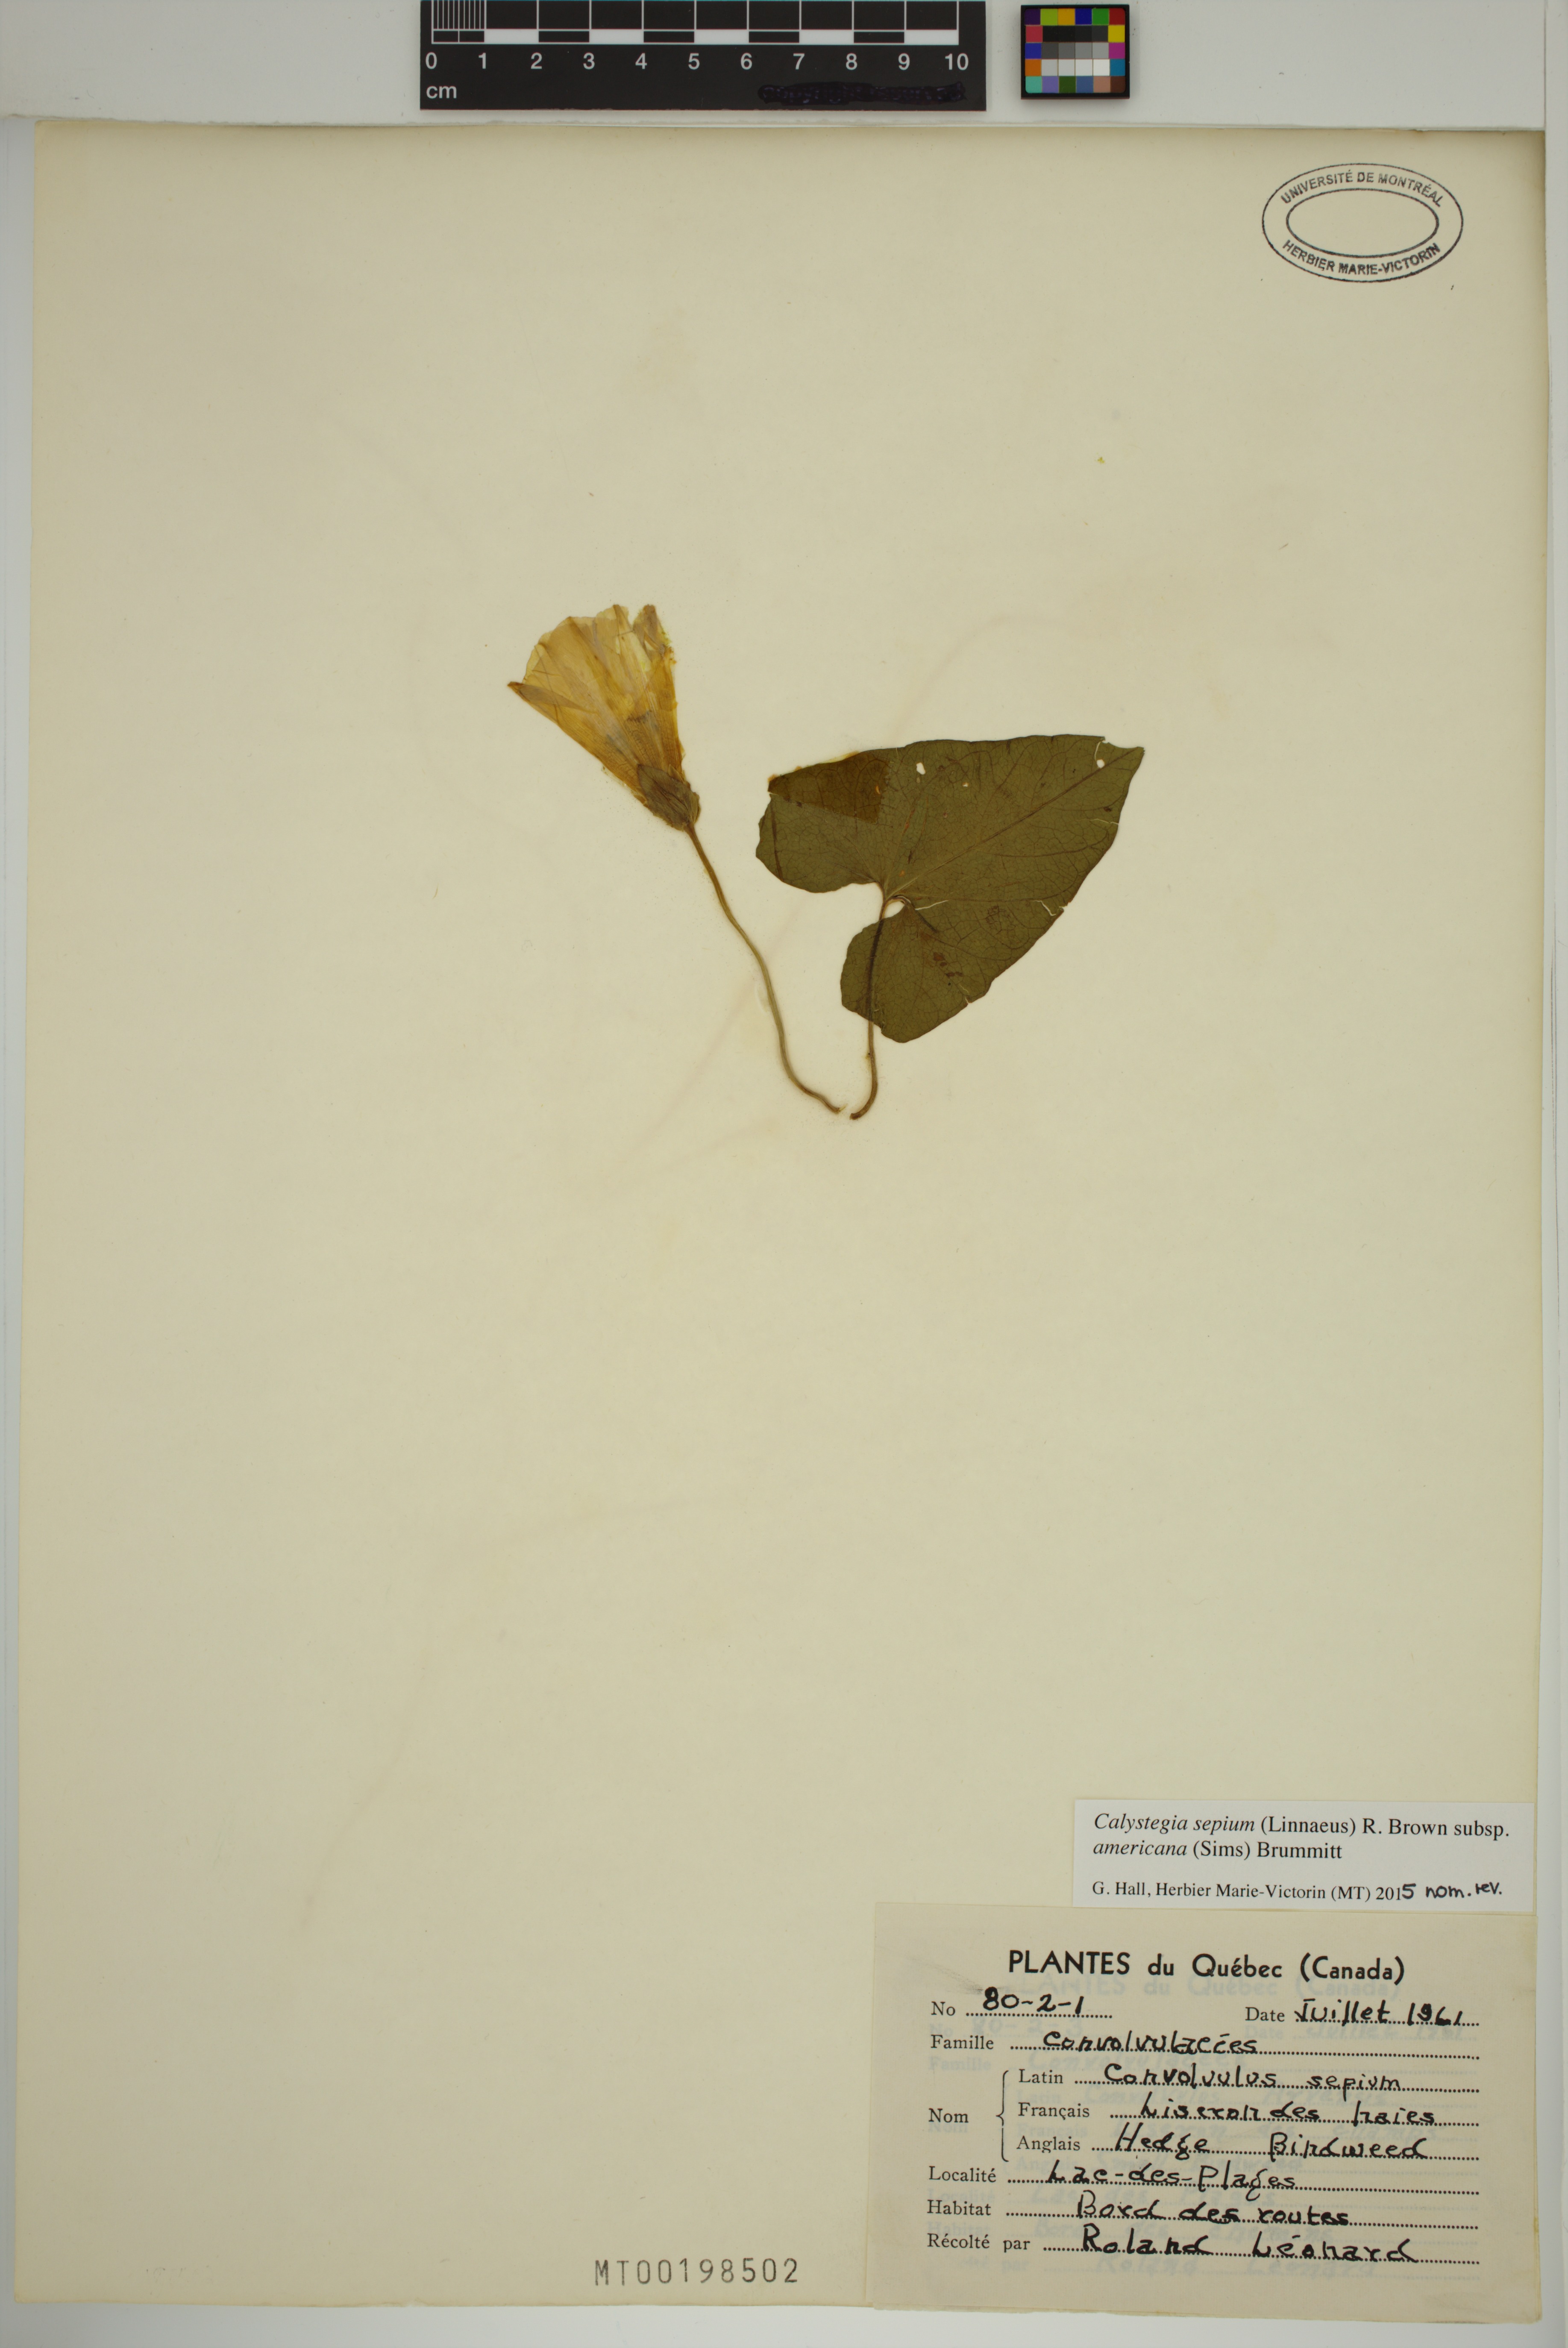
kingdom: Plantae
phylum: Tracheophyta
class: Magnoliopsida
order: Solanales
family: Convolvulaceae
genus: Calystegia
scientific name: Calystegia sepium
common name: Hedge bindweed
